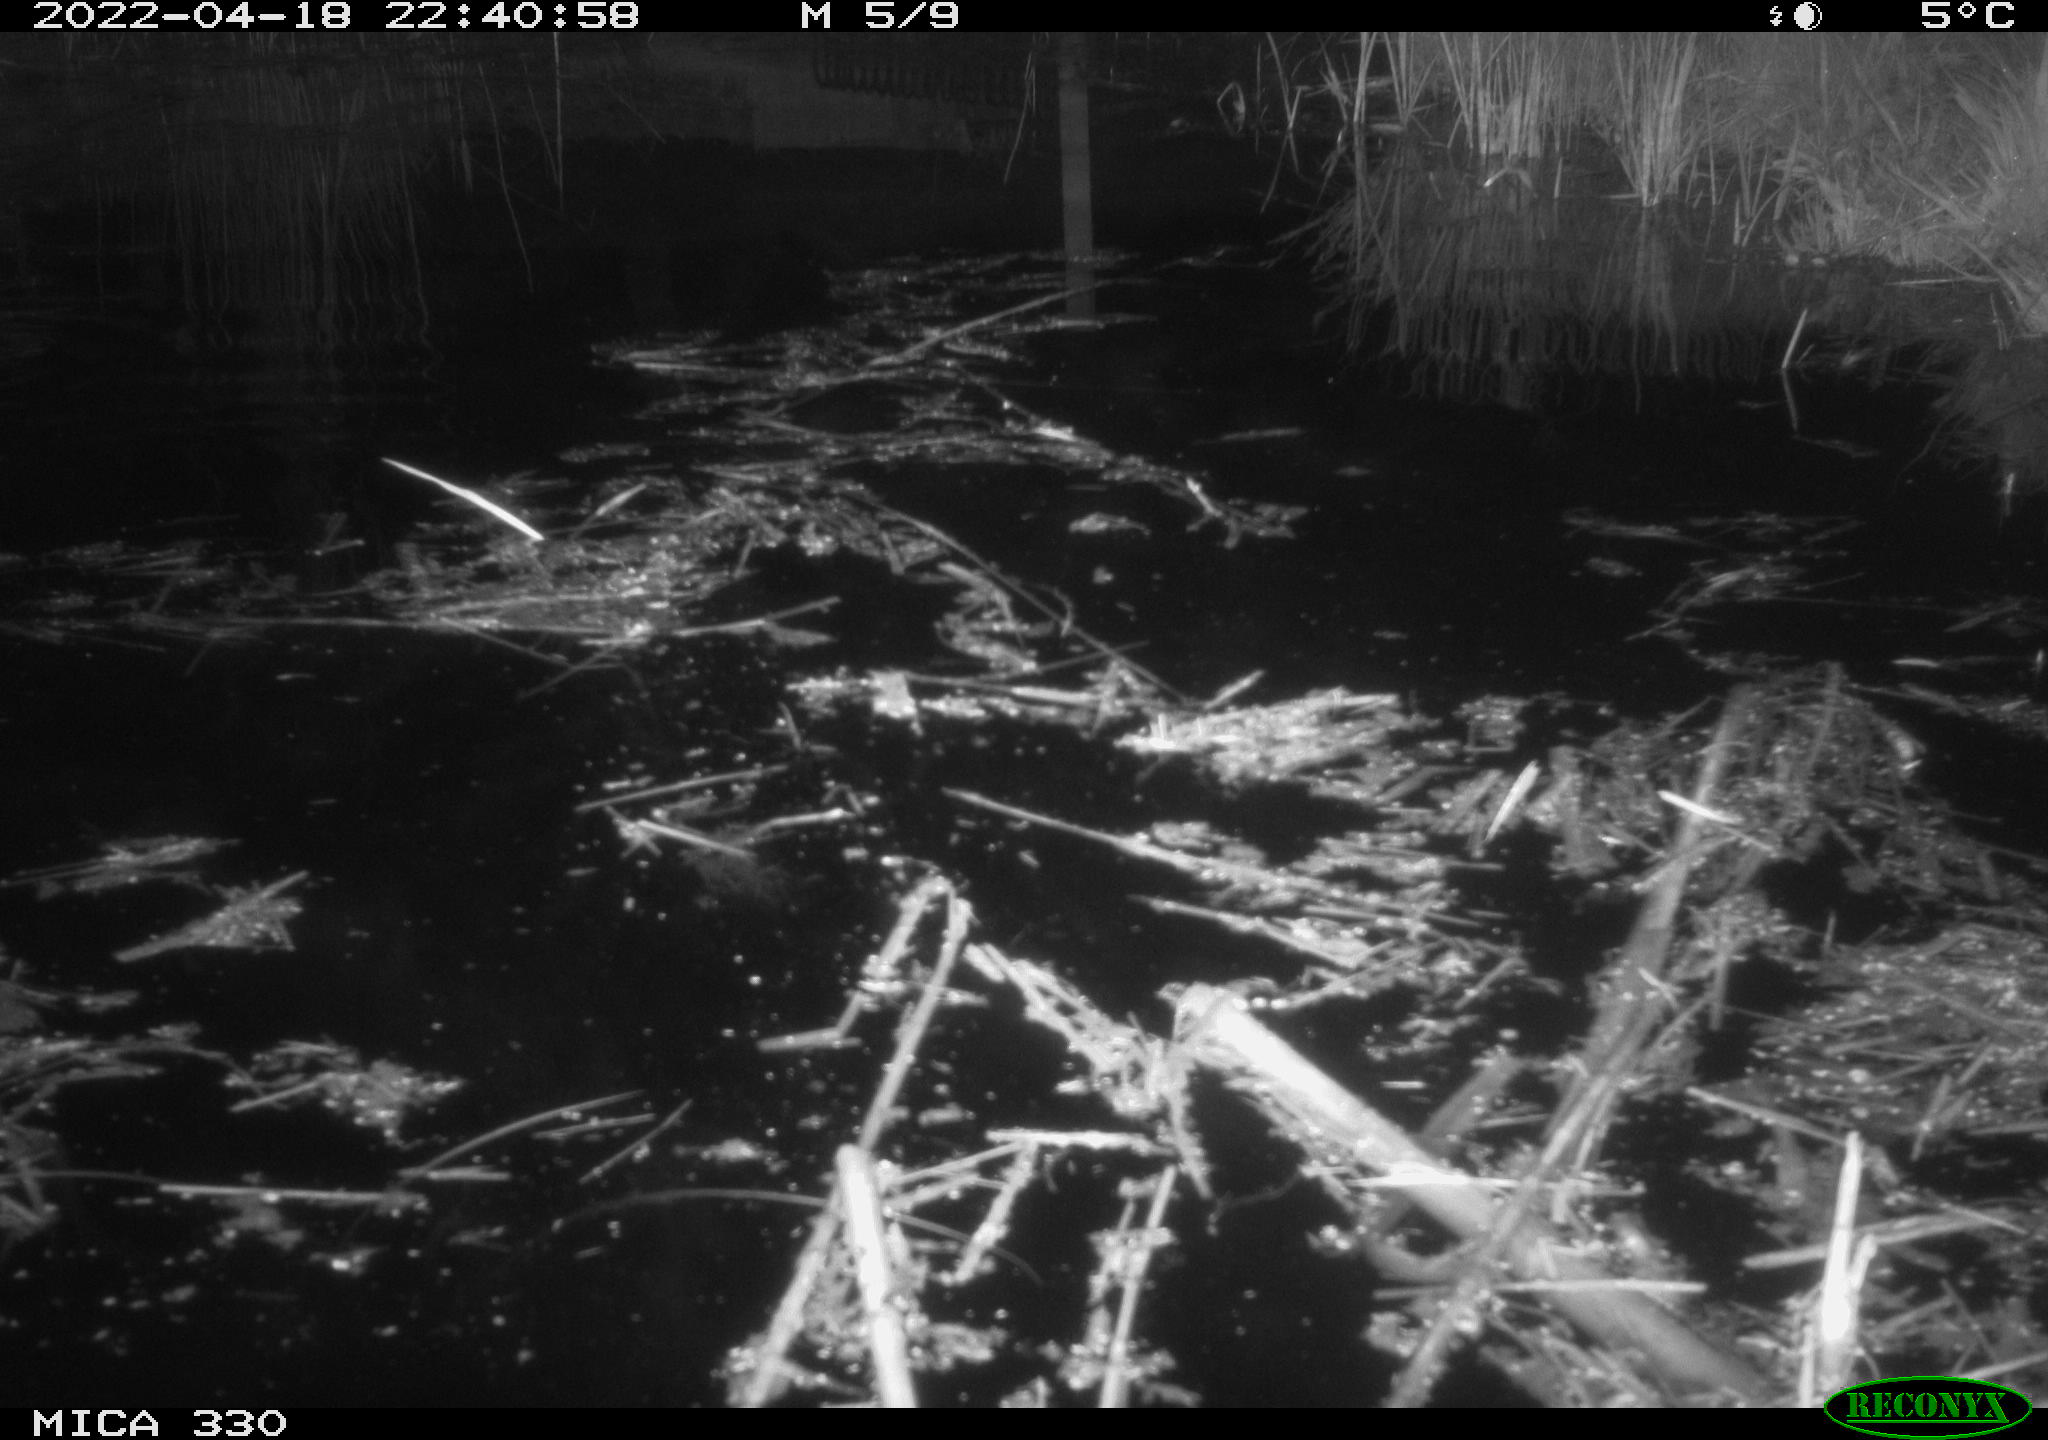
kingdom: Animalia
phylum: Chordata
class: Mammalia
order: Rodentia
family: Muridae
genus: Rattus
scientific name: Rattus norvegicus
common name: Brown rat
